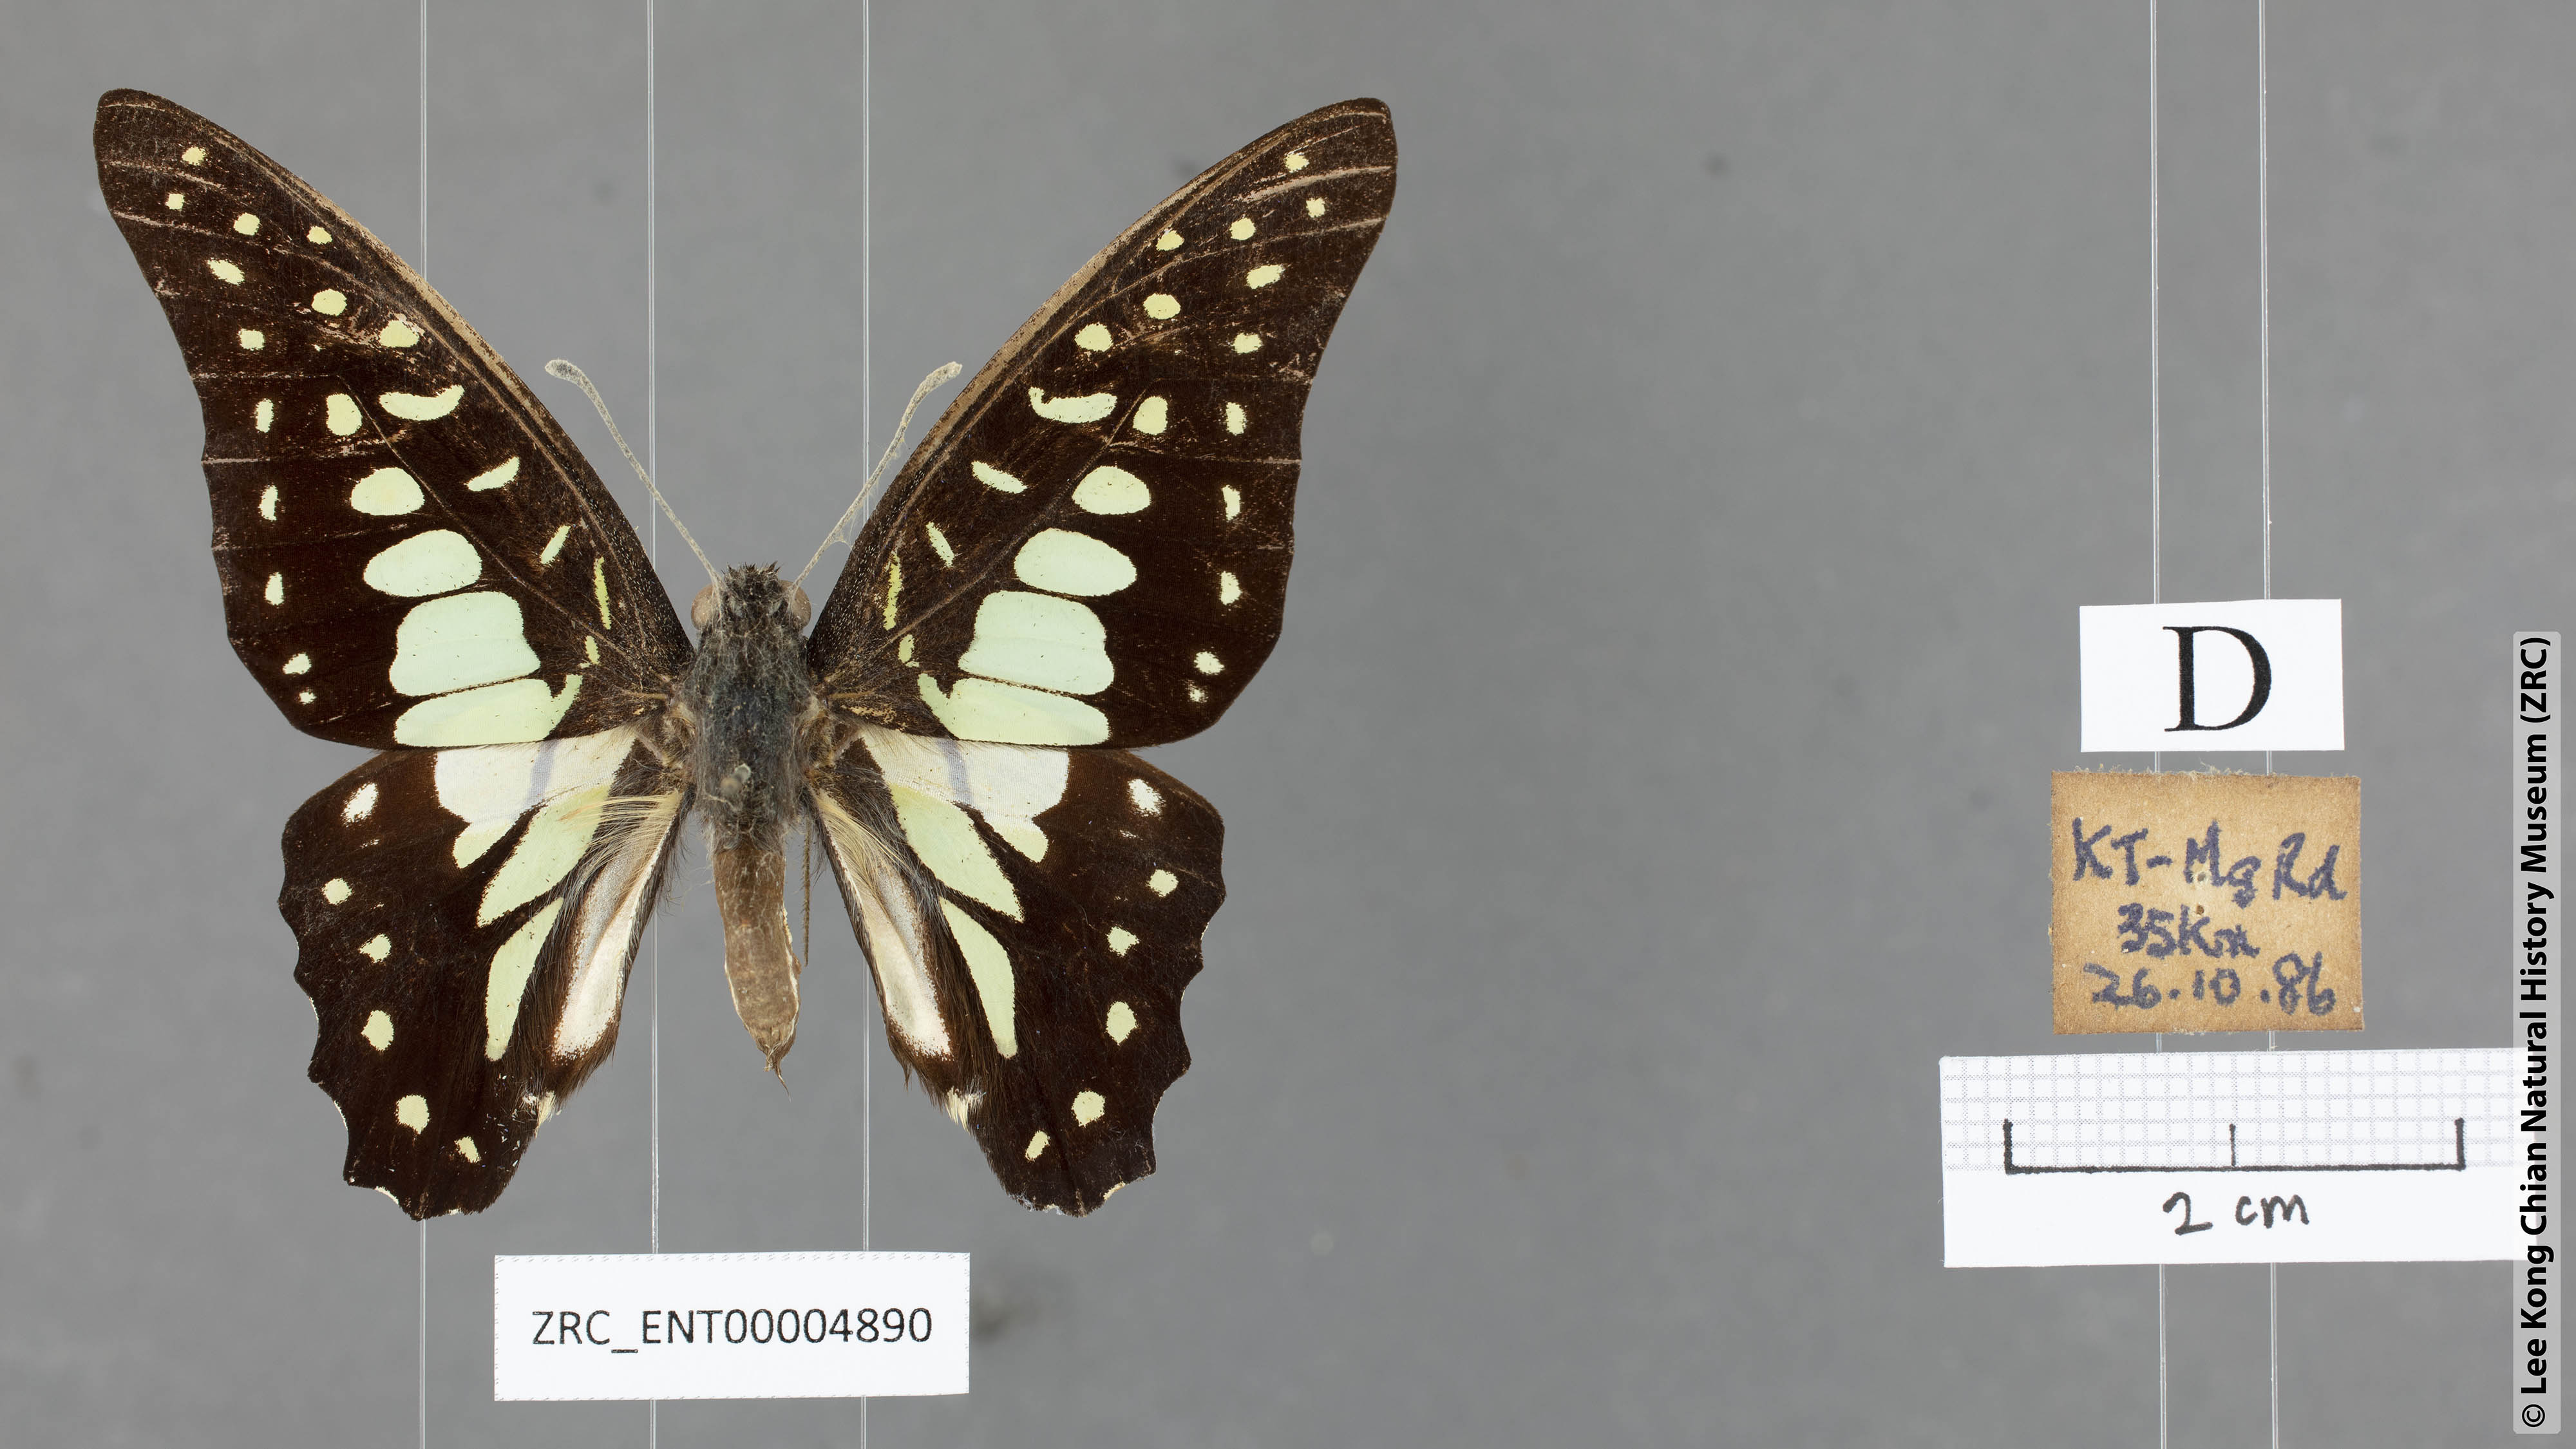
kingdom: Animalia
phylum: Arthropoda
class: Insecta
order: Lepidoptera
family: Papilionidae
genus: Graphium
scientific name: Graphium bathycles
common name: Veined jay
